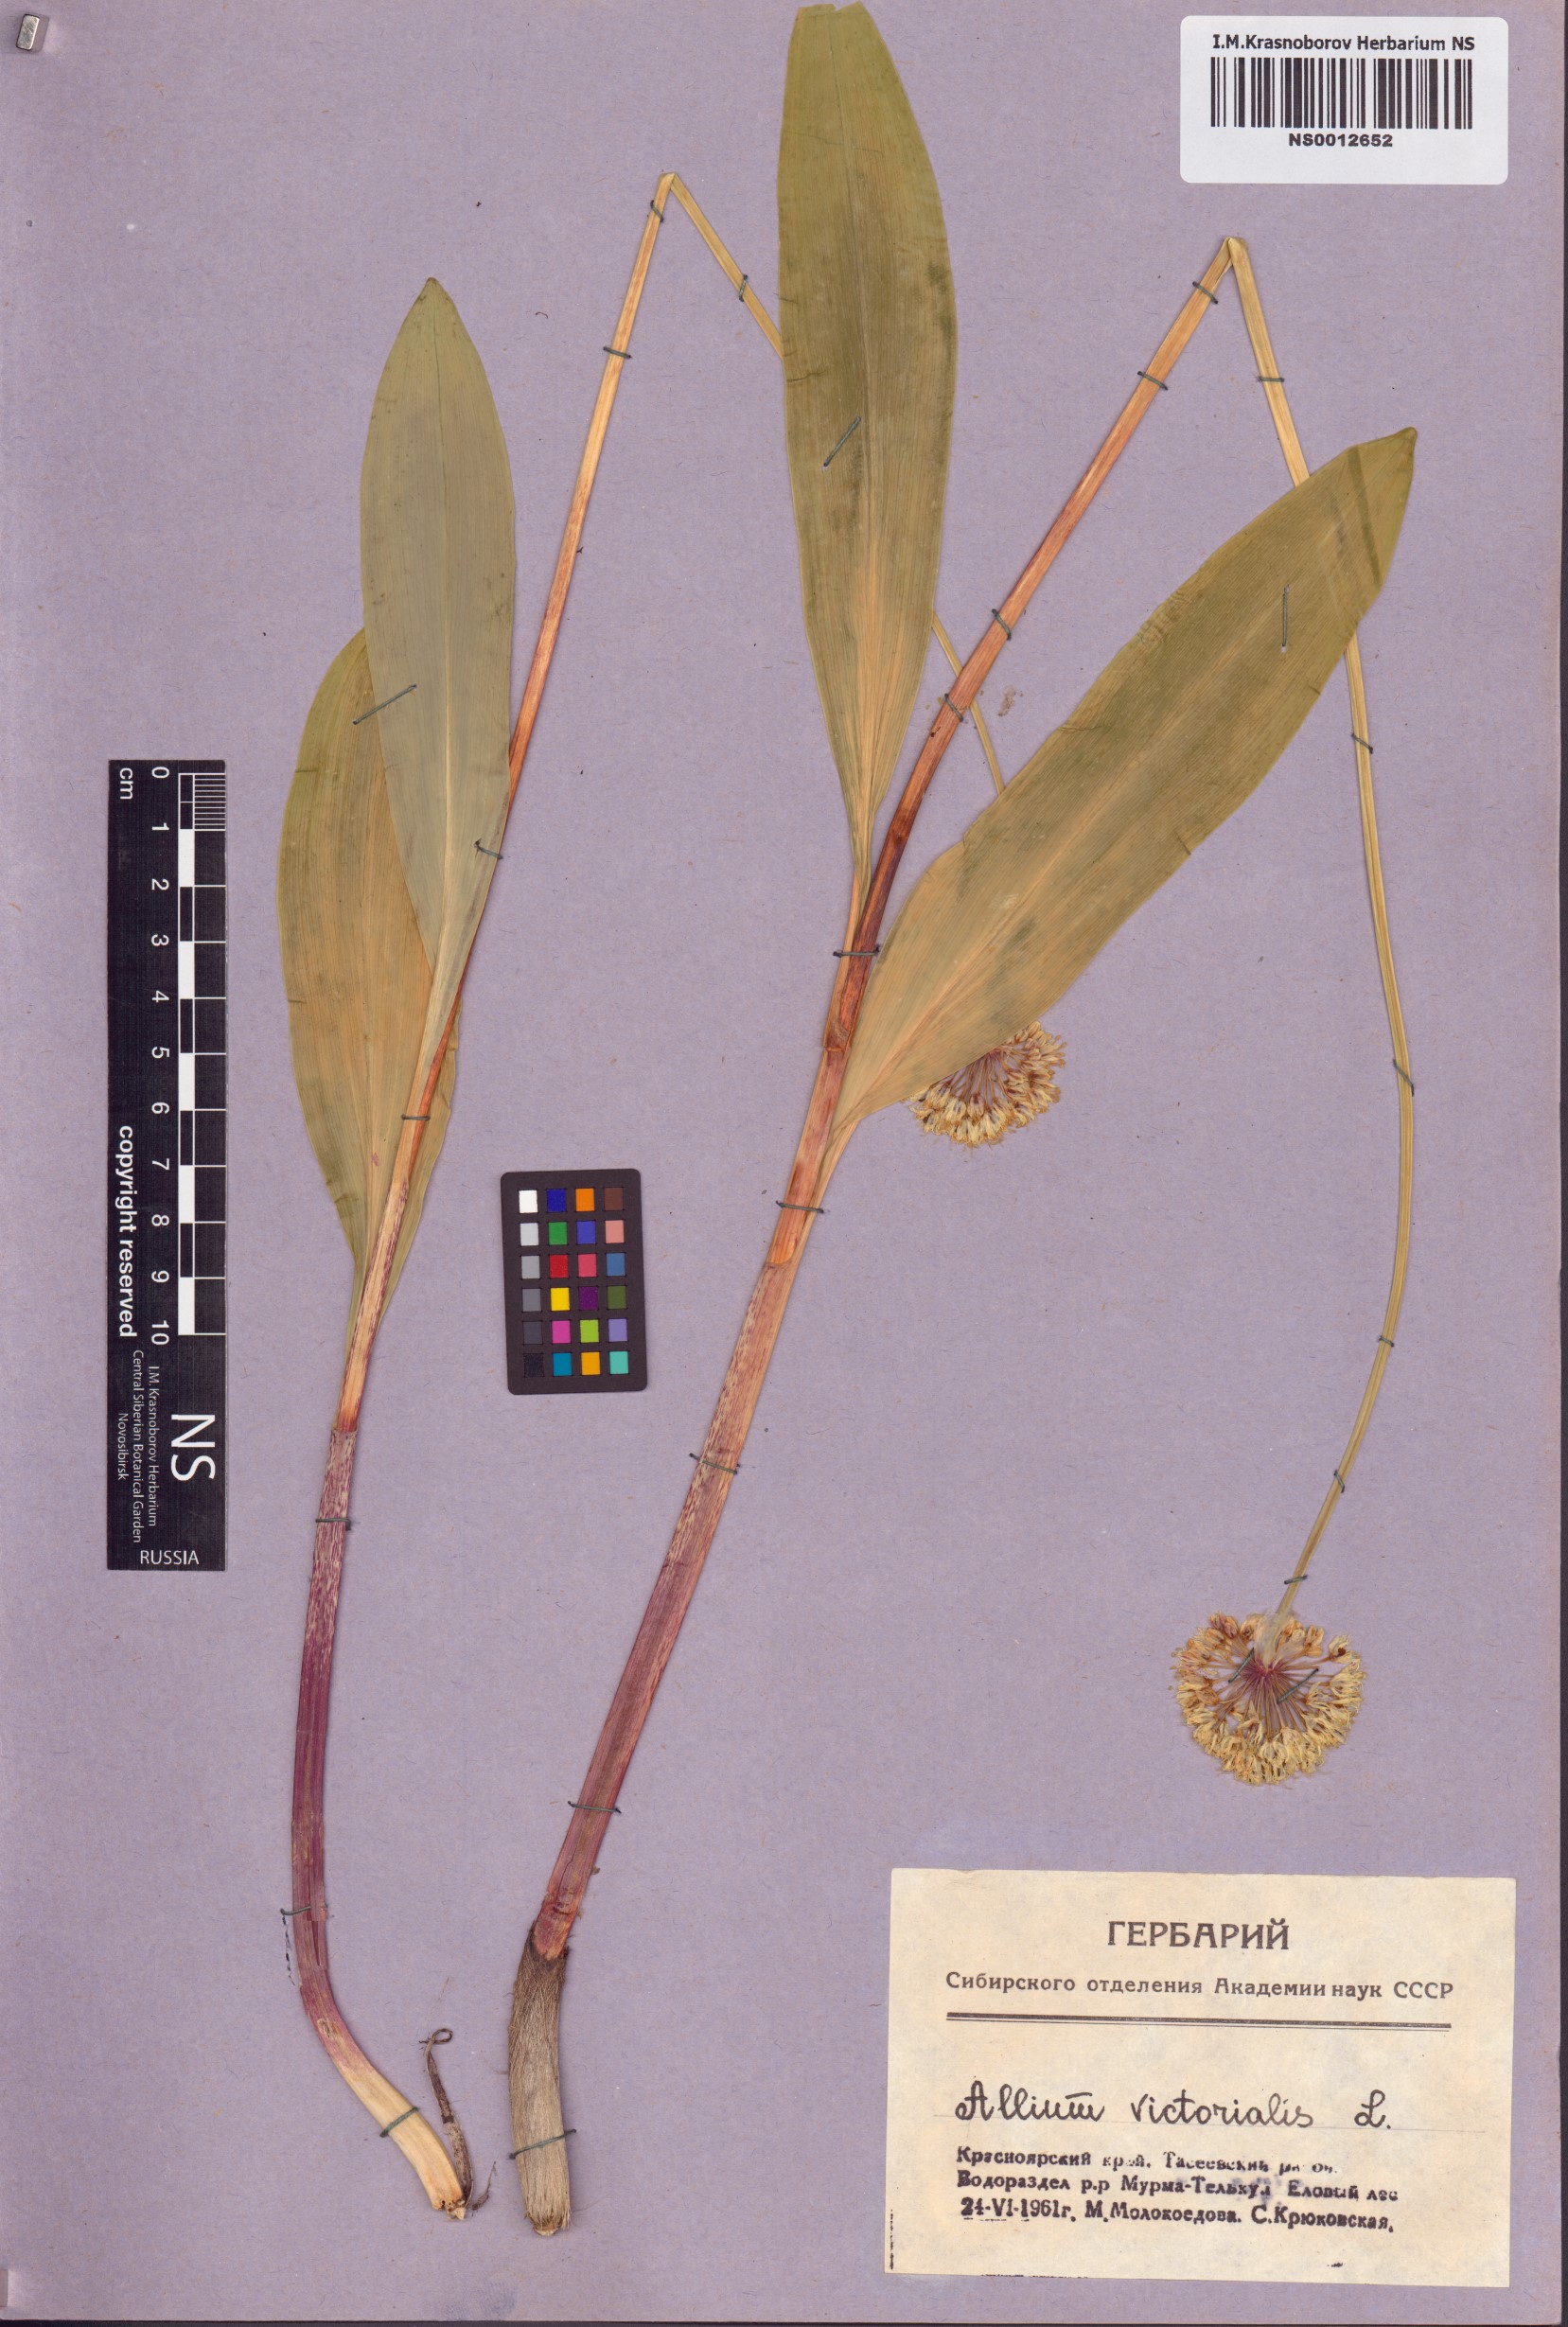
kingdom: Plantae
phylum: Tracheophyta
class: Liliopsida
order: Asparagales
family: Amaryllidaceae
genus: Allium
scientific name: Allium microdictyon
